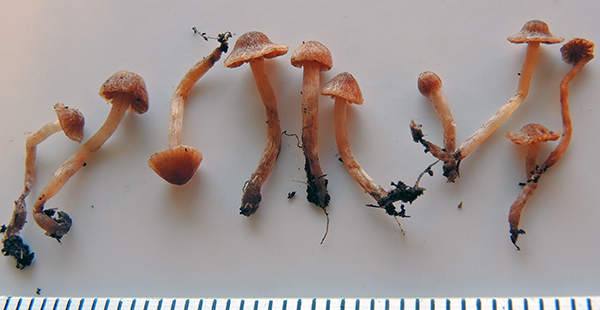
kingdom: Fungi
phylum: Basidiomycota
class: Agaricomycetes
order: Agaricales
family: Cortinariaceae
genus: Cortinarius
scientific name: Cortinarius
